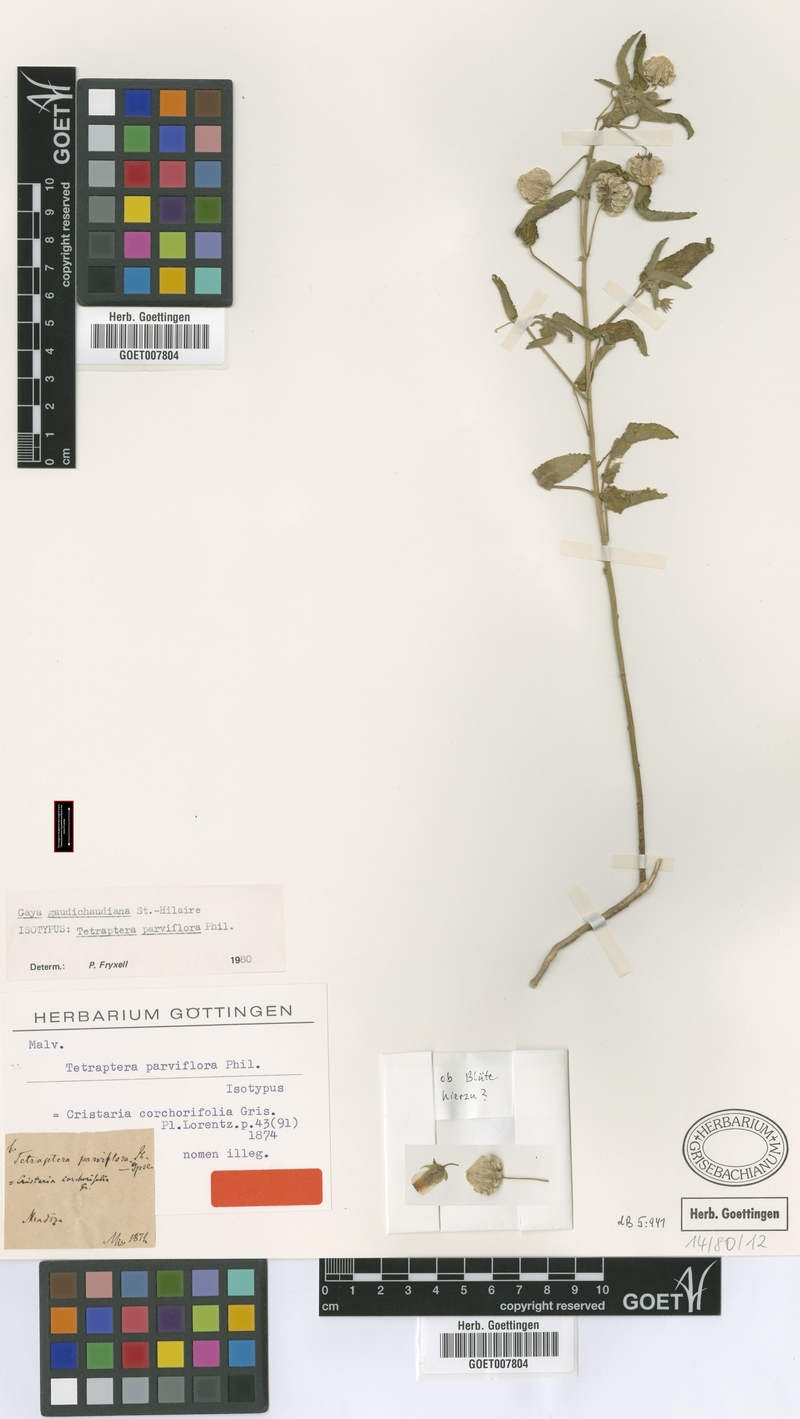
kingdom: Plantae
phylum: Tracheophyta
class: Magnoliopsida
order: Malvales
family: Malvaceae
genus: Gaya
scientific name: Gaya gaudichaudiana
